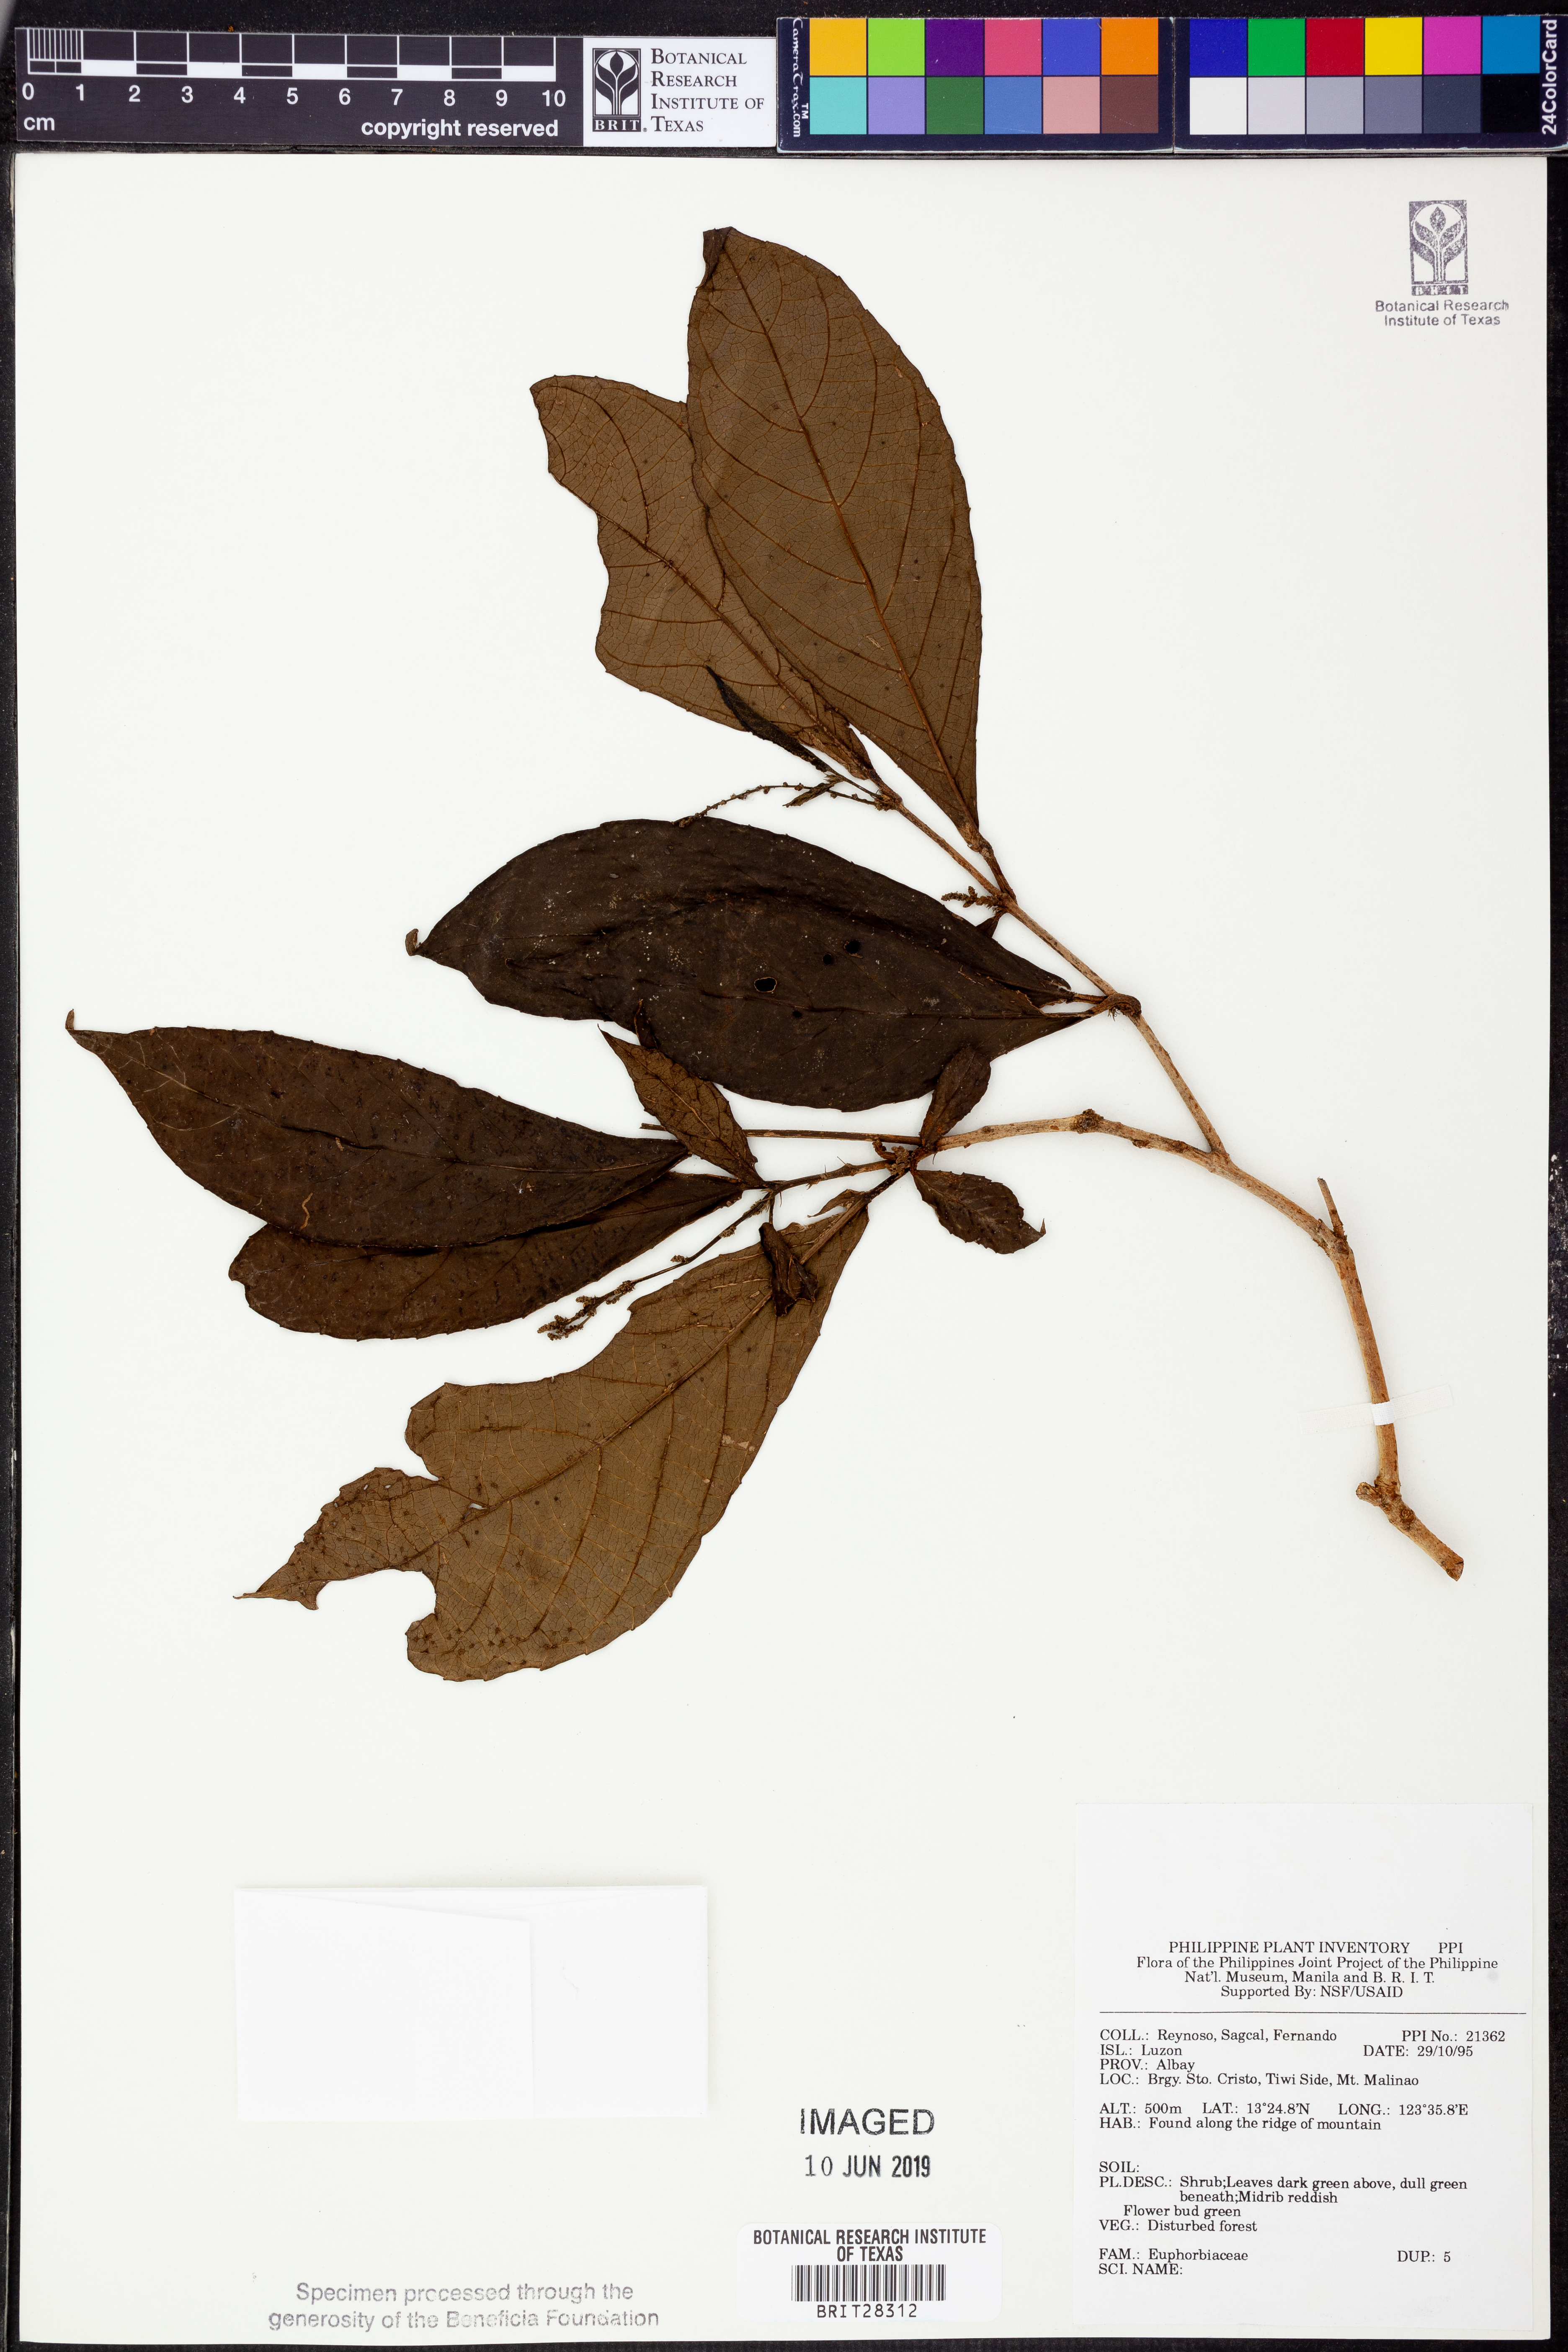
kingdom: Plantae
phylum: Tracheophyta
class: Magnoliopsida
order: Malpighiales
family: Euphorbiaceae
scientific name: Euphorbiaceae
